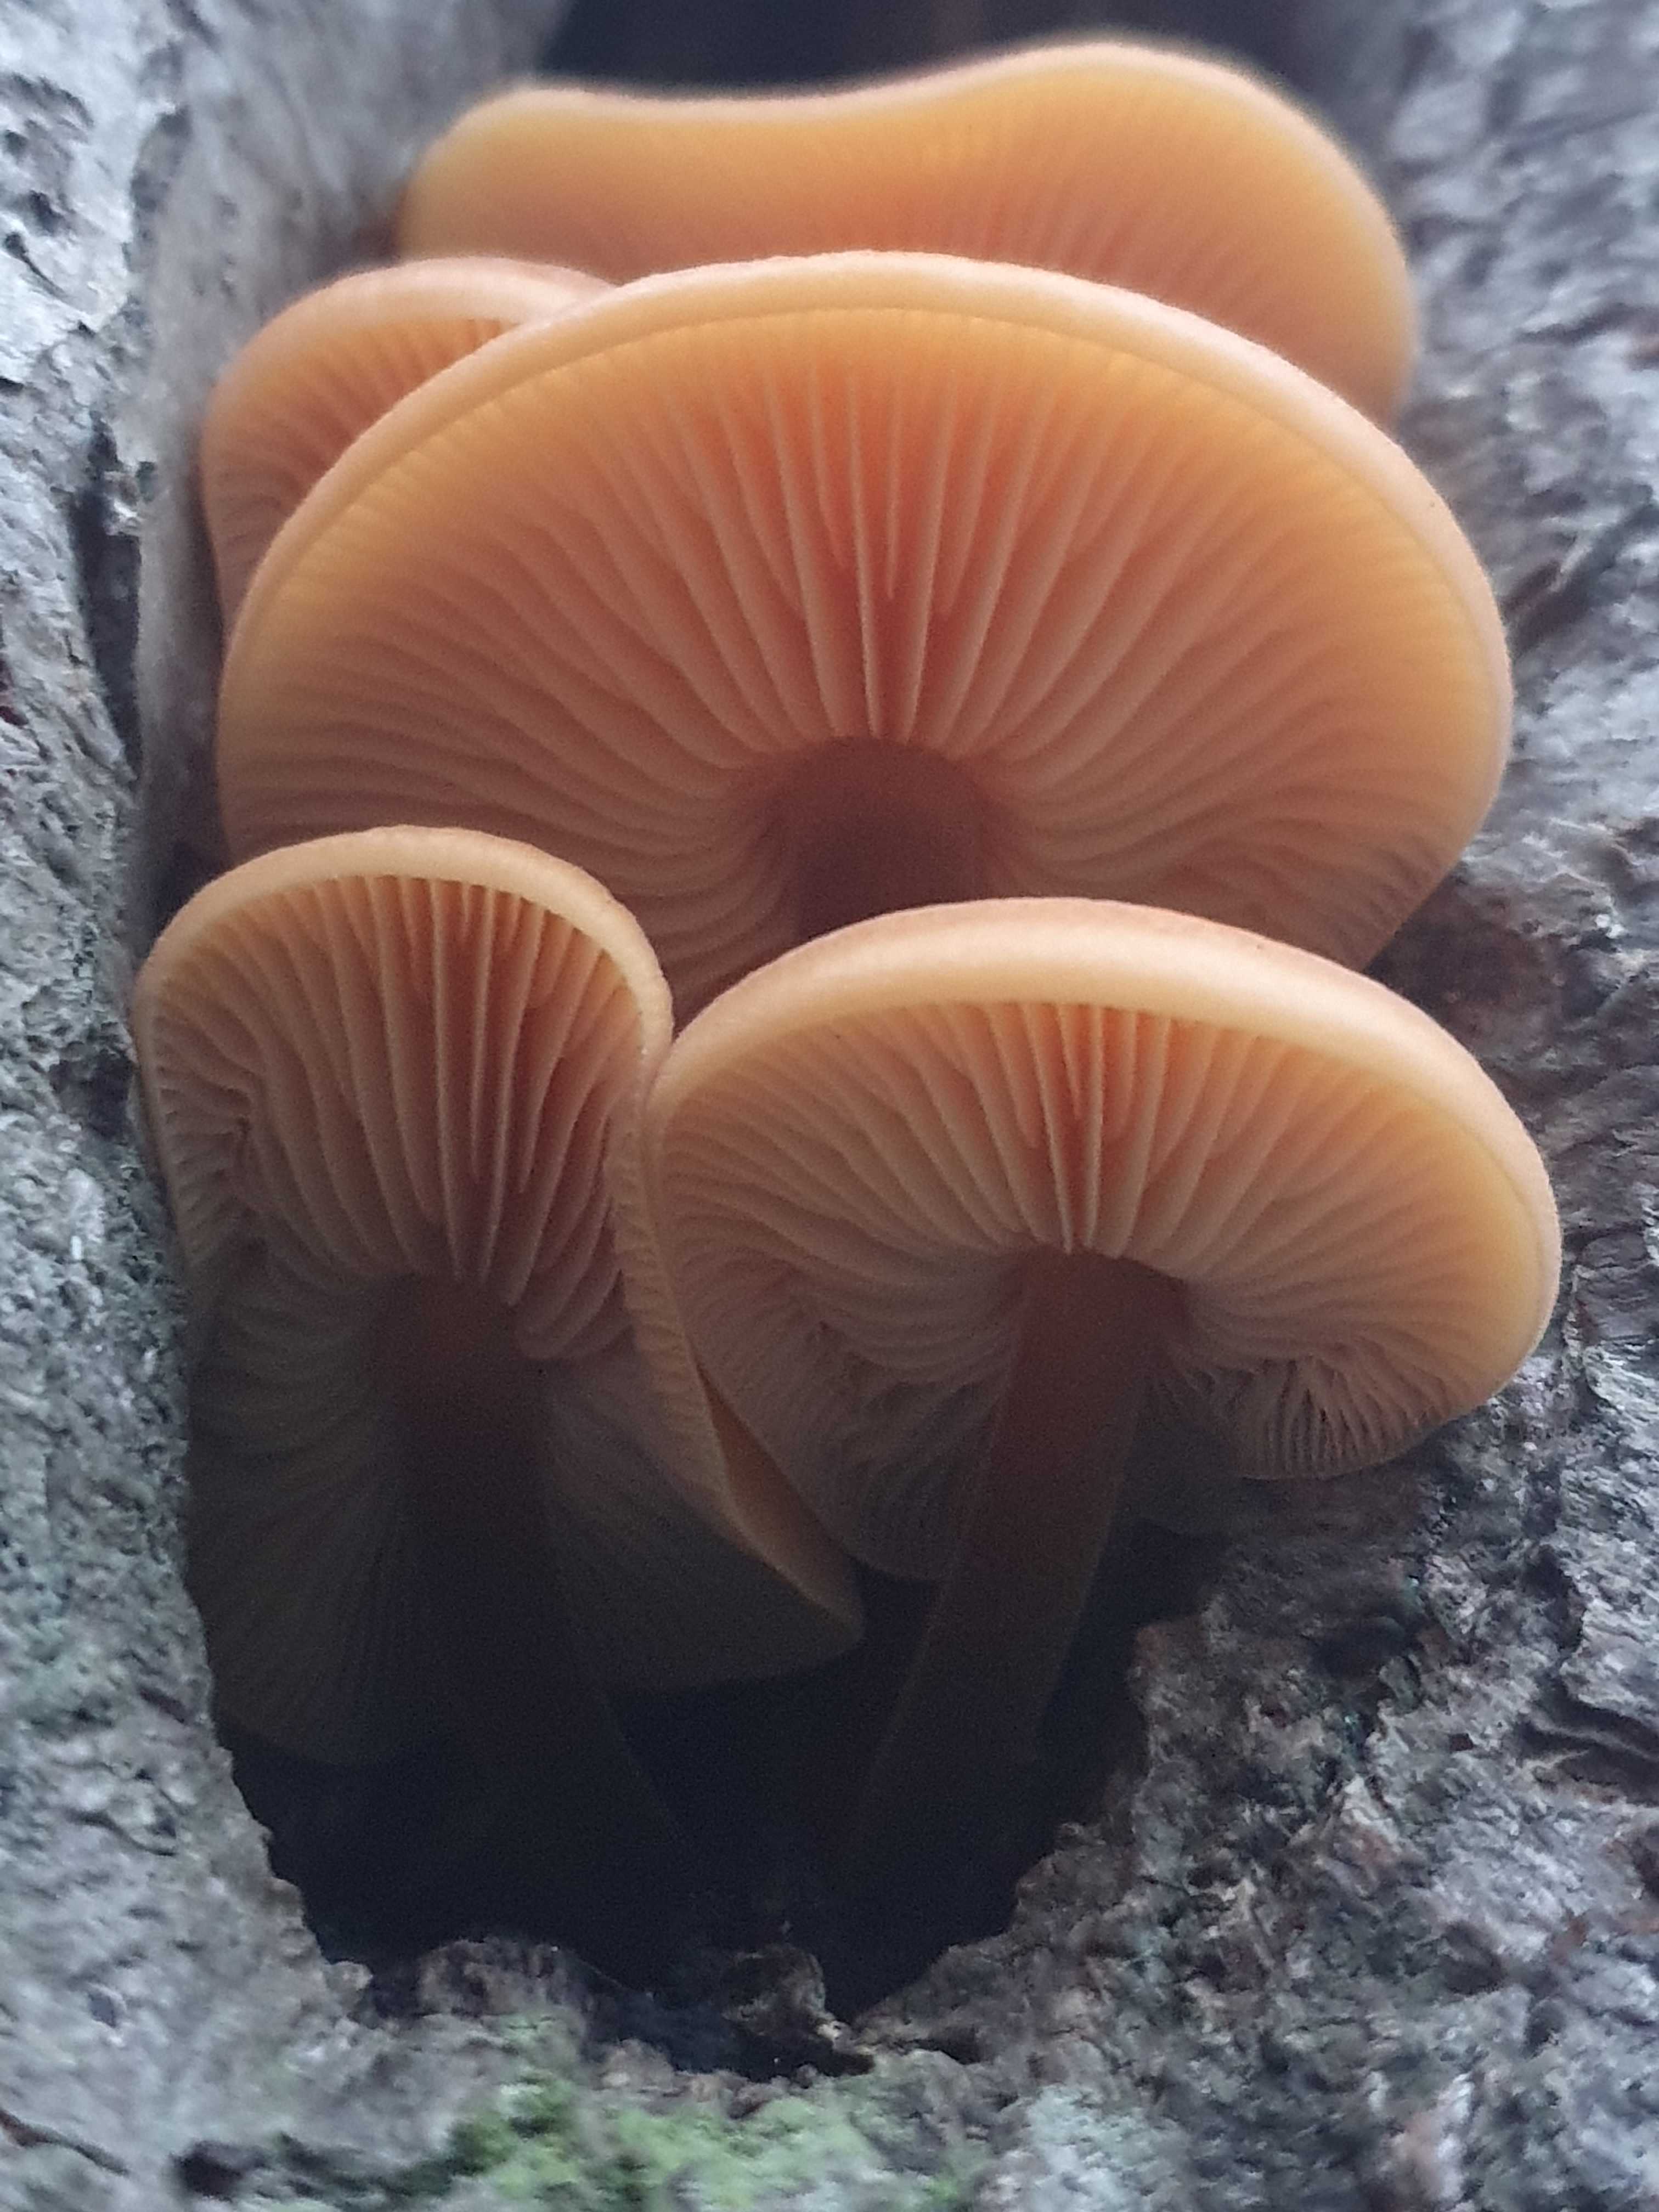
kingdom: Fungi
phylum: Basidiomycota
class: Agaricomycetes
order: Agaricales
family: Physalacriaceae
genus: Flammulina
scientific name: Flammulina
